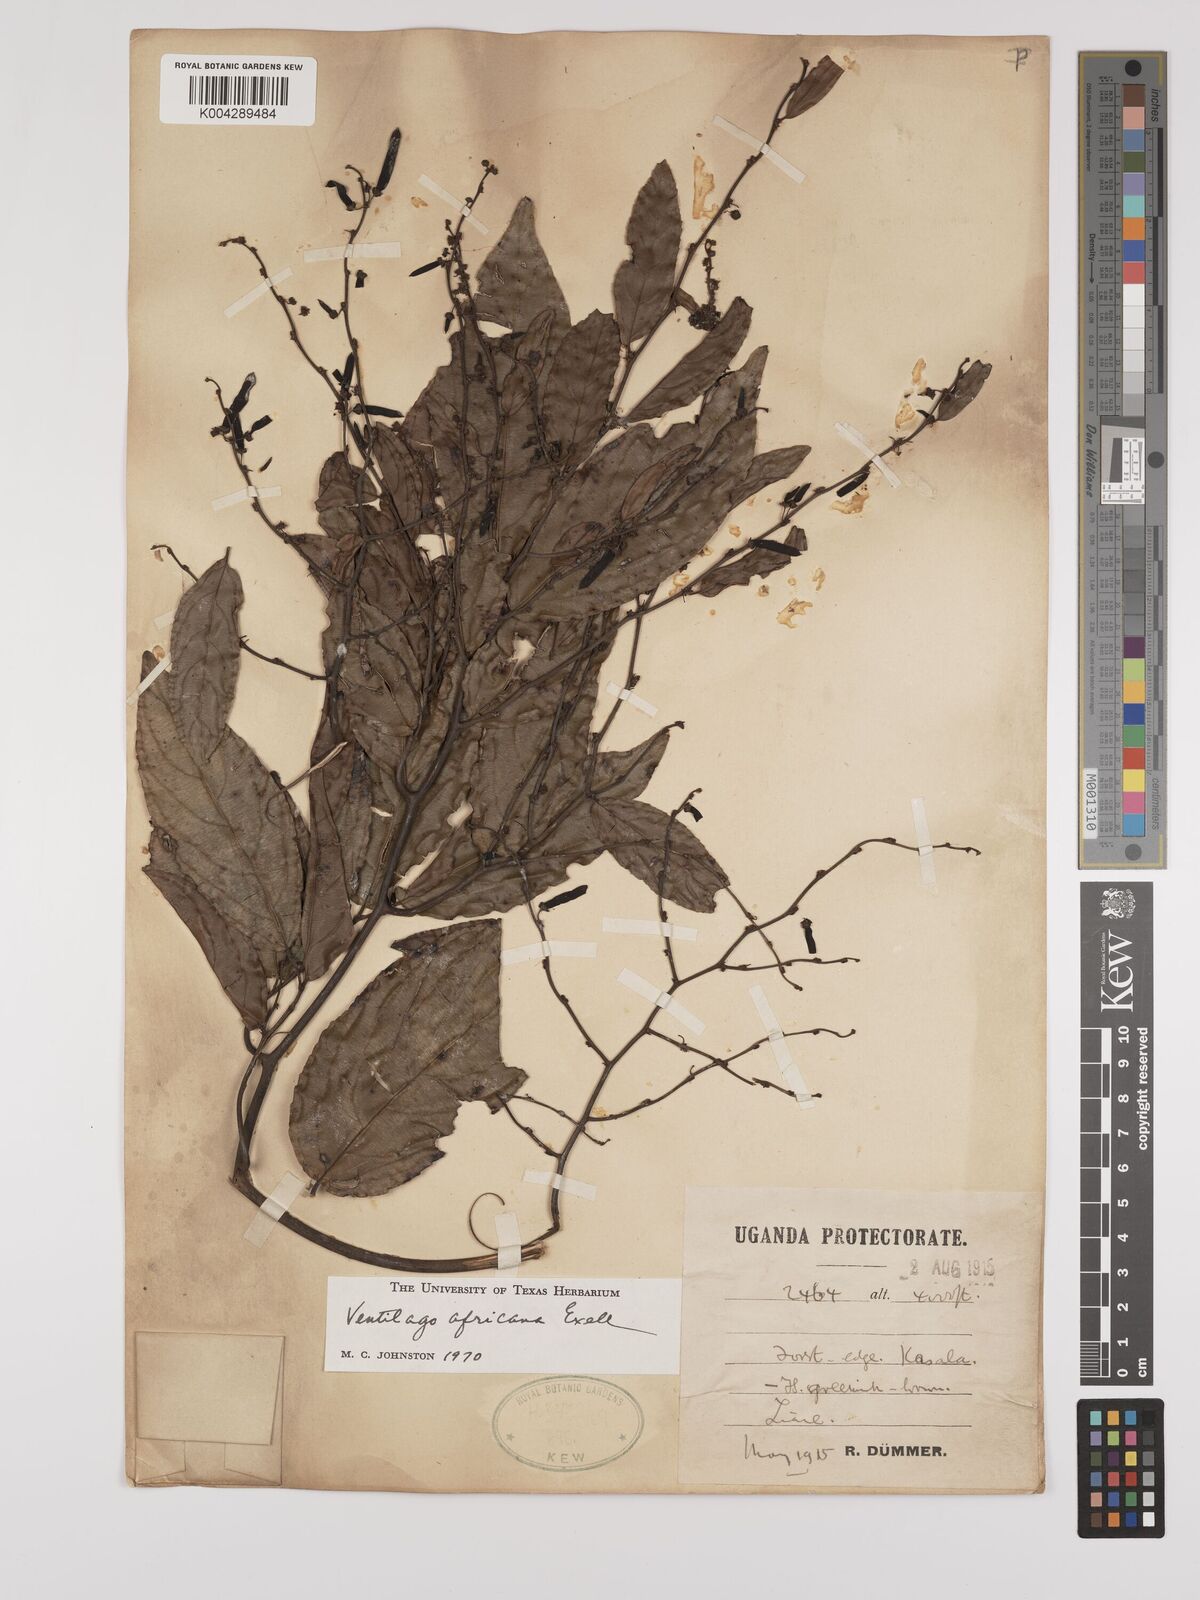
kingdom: Plantae
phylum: Tracheophyta
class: Magnoliopsida
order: Rosales
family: Rhamnaceae
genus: Ventilago
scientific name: Ventilago africana
